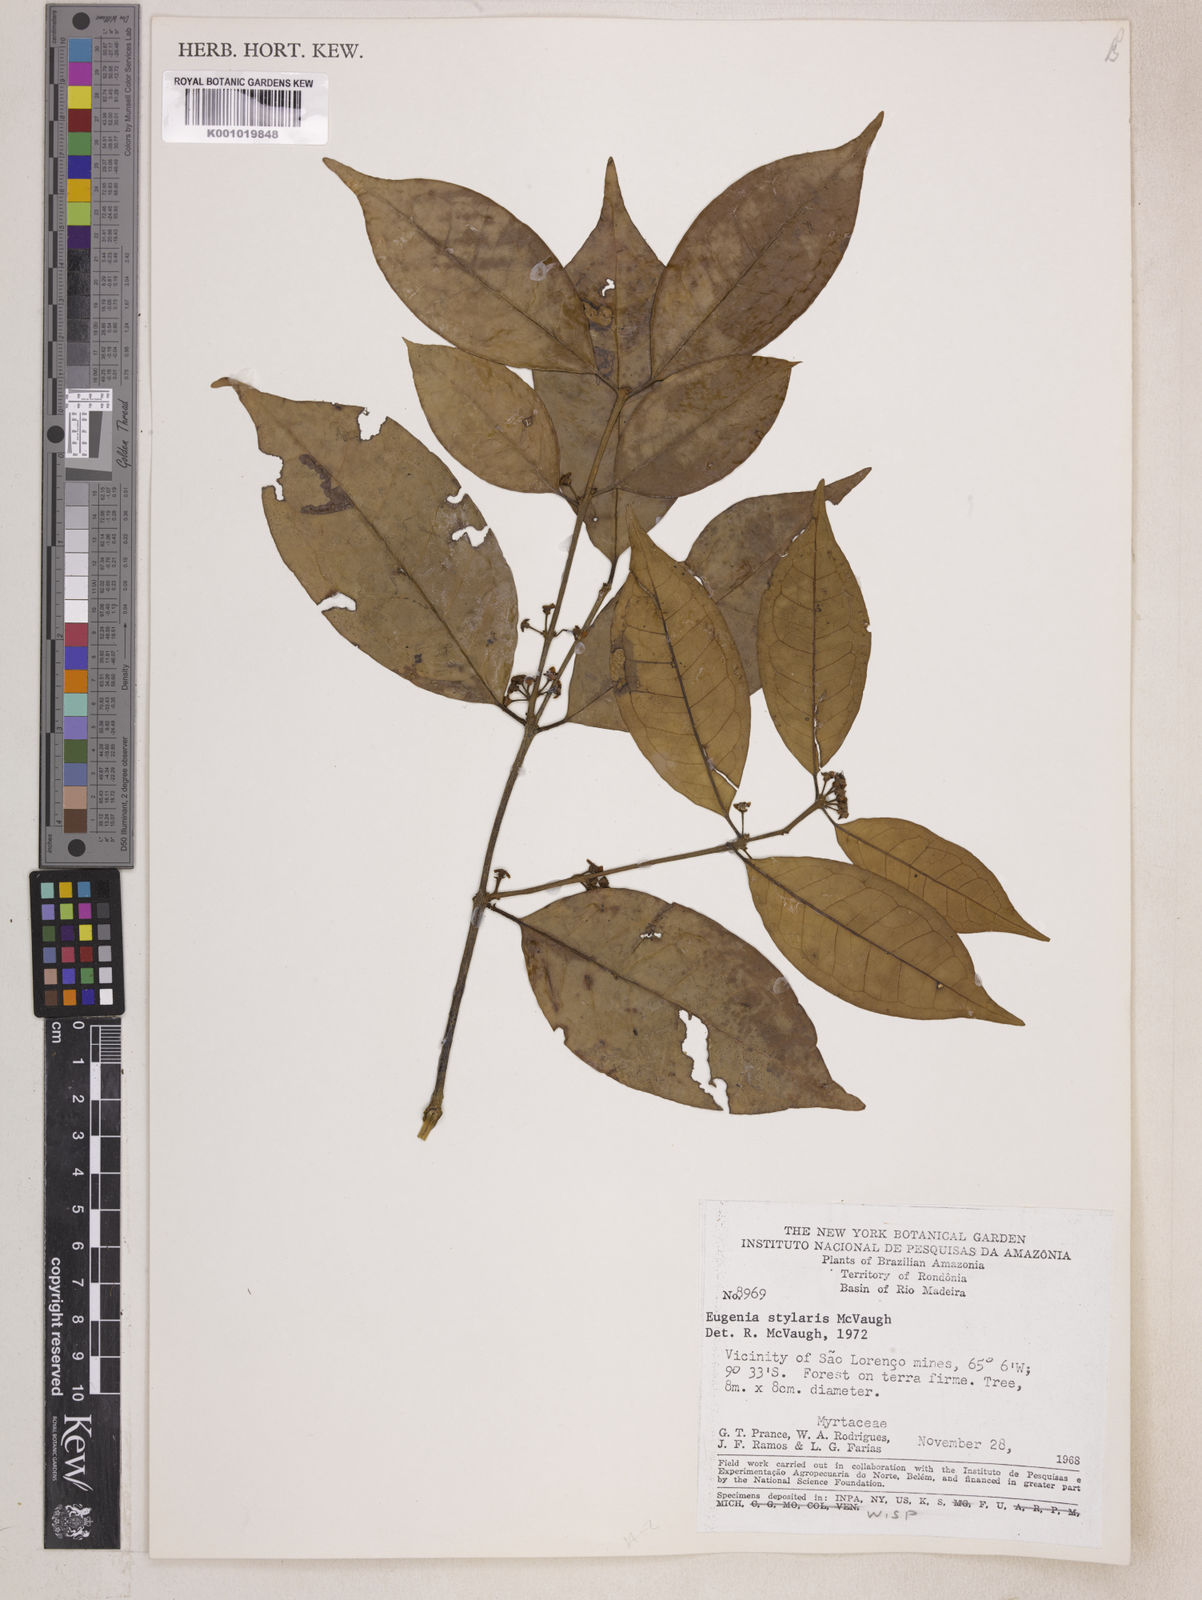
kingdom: Plantae
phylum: Tracheophyta
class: Magnoliopsida
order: Myrtales
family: Myrtaceae
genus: Eugenia
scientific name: Eugenia stylaris
